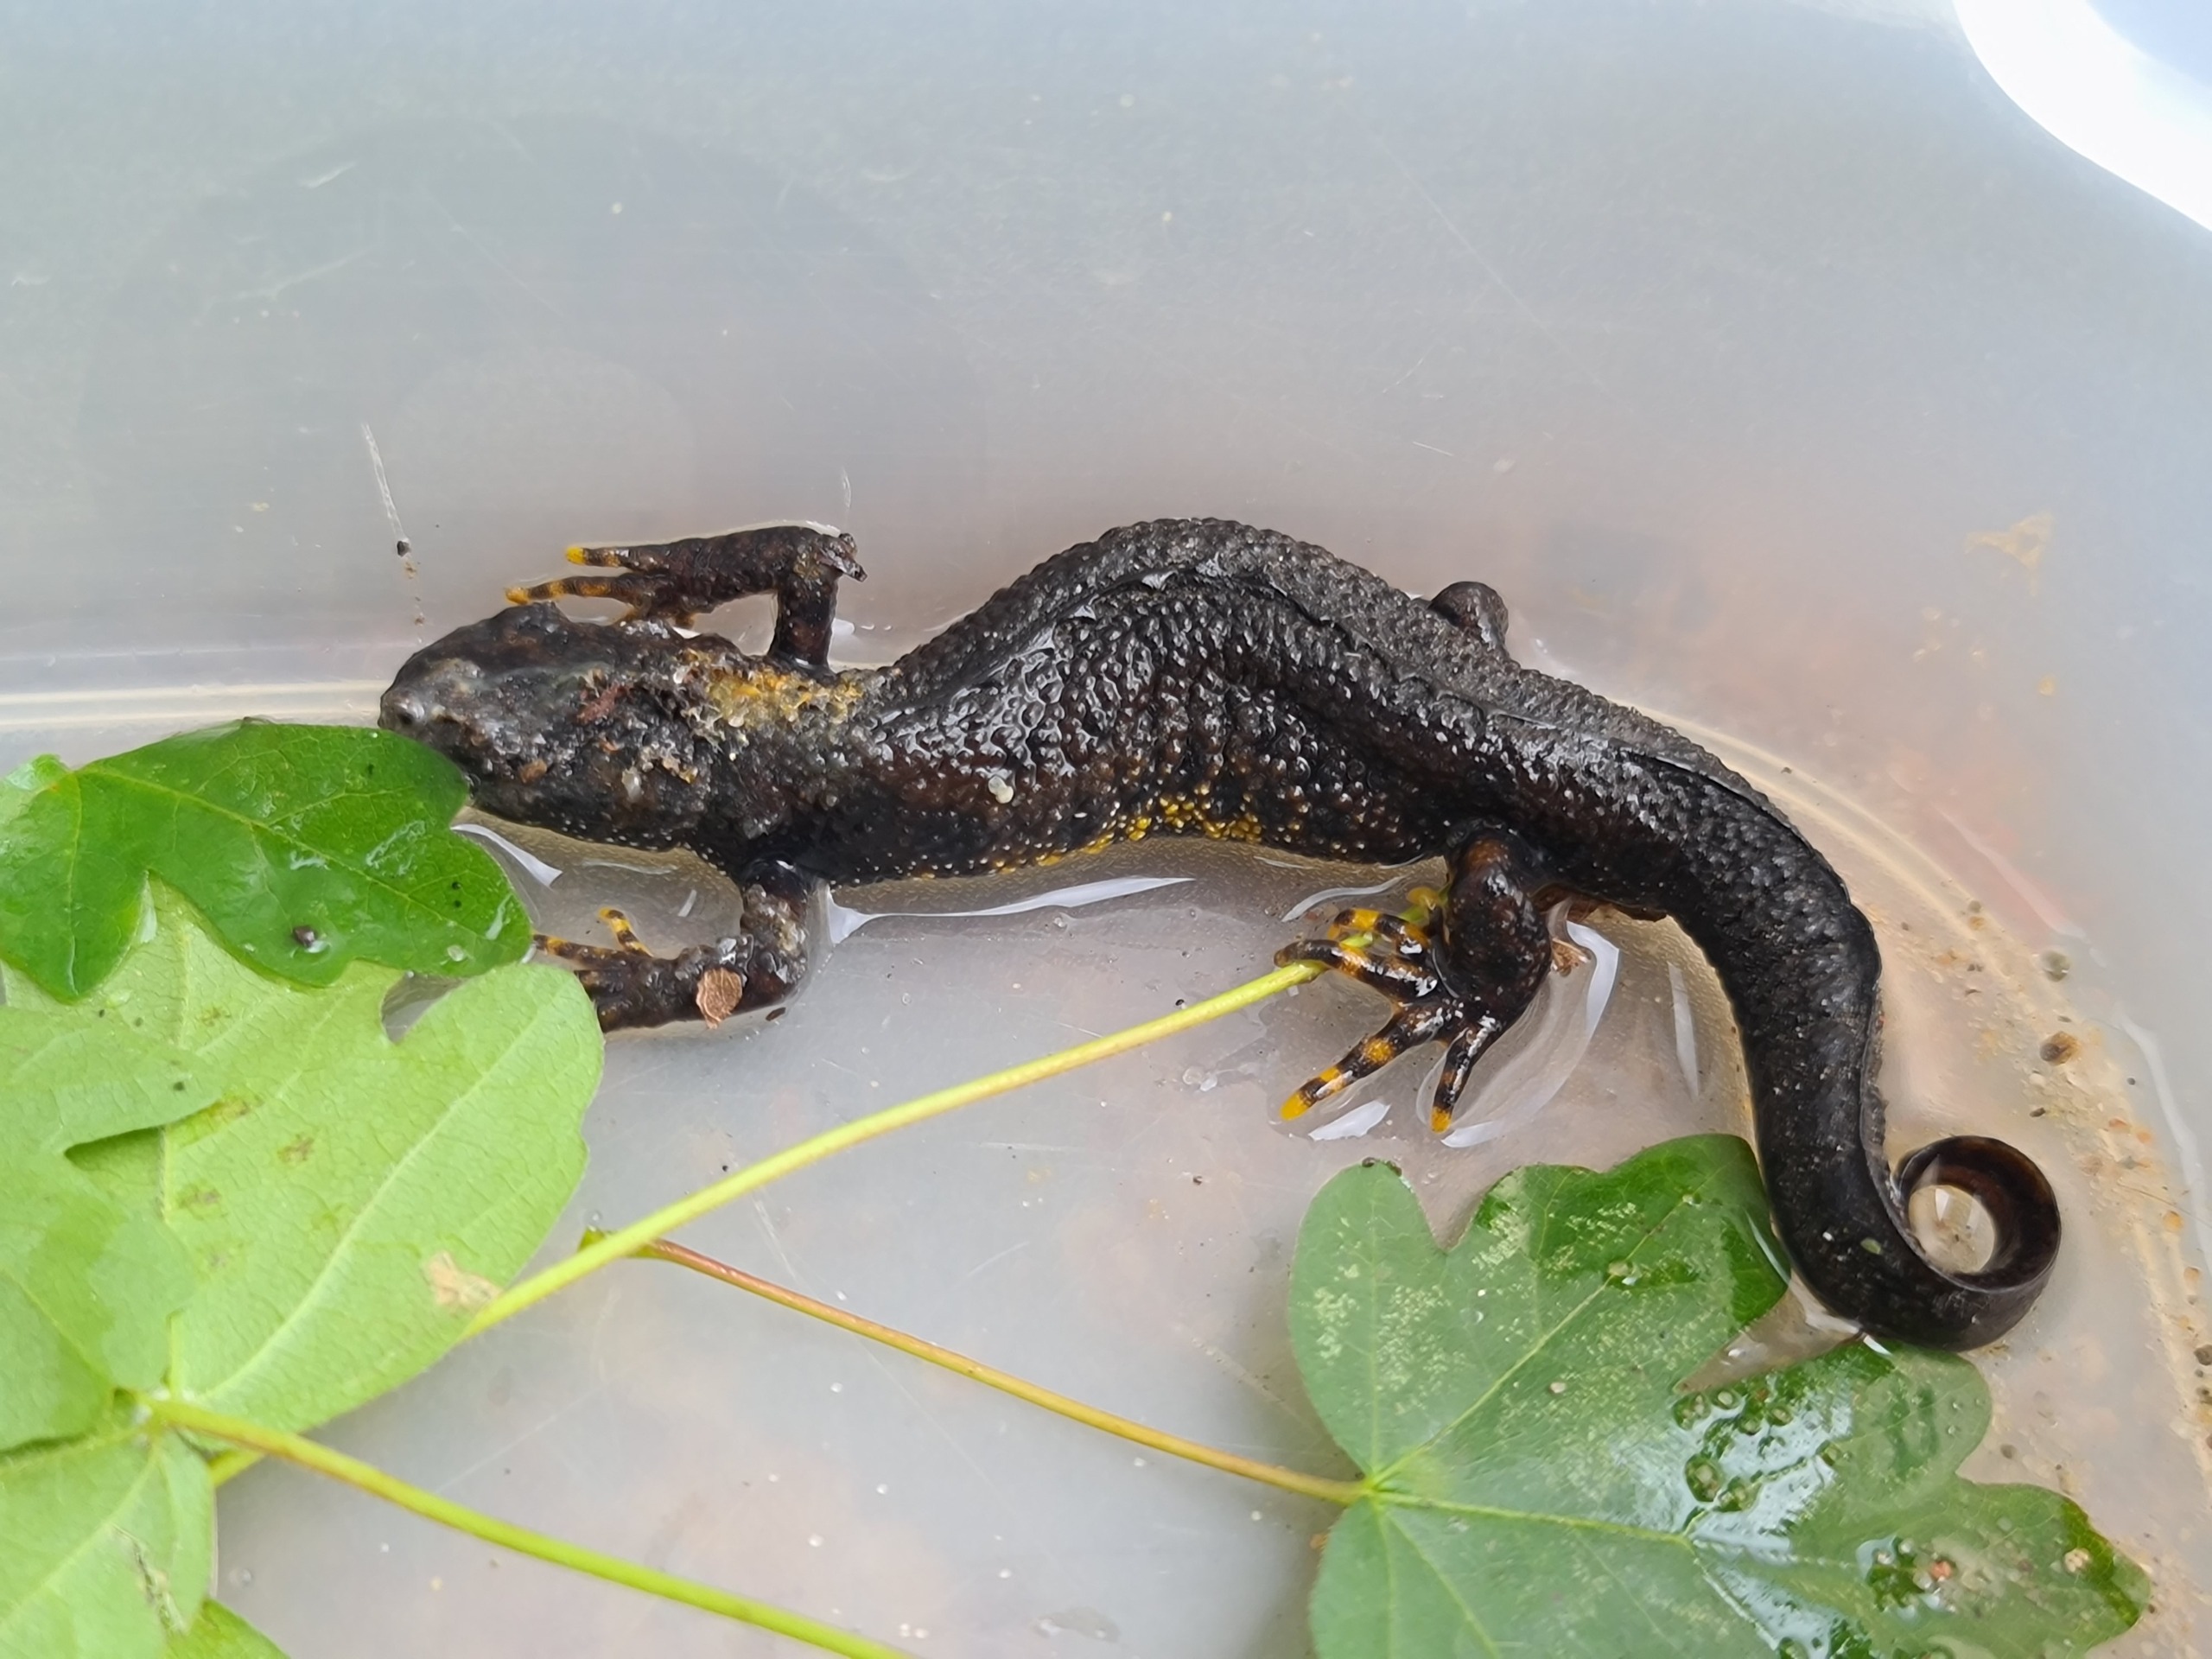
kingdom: Animalia
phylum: Chordata
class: Amphibia
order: Caudata
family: Salamandridae
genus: Triturus
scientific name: Triturus cristatus
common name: Stor vandsalamander
